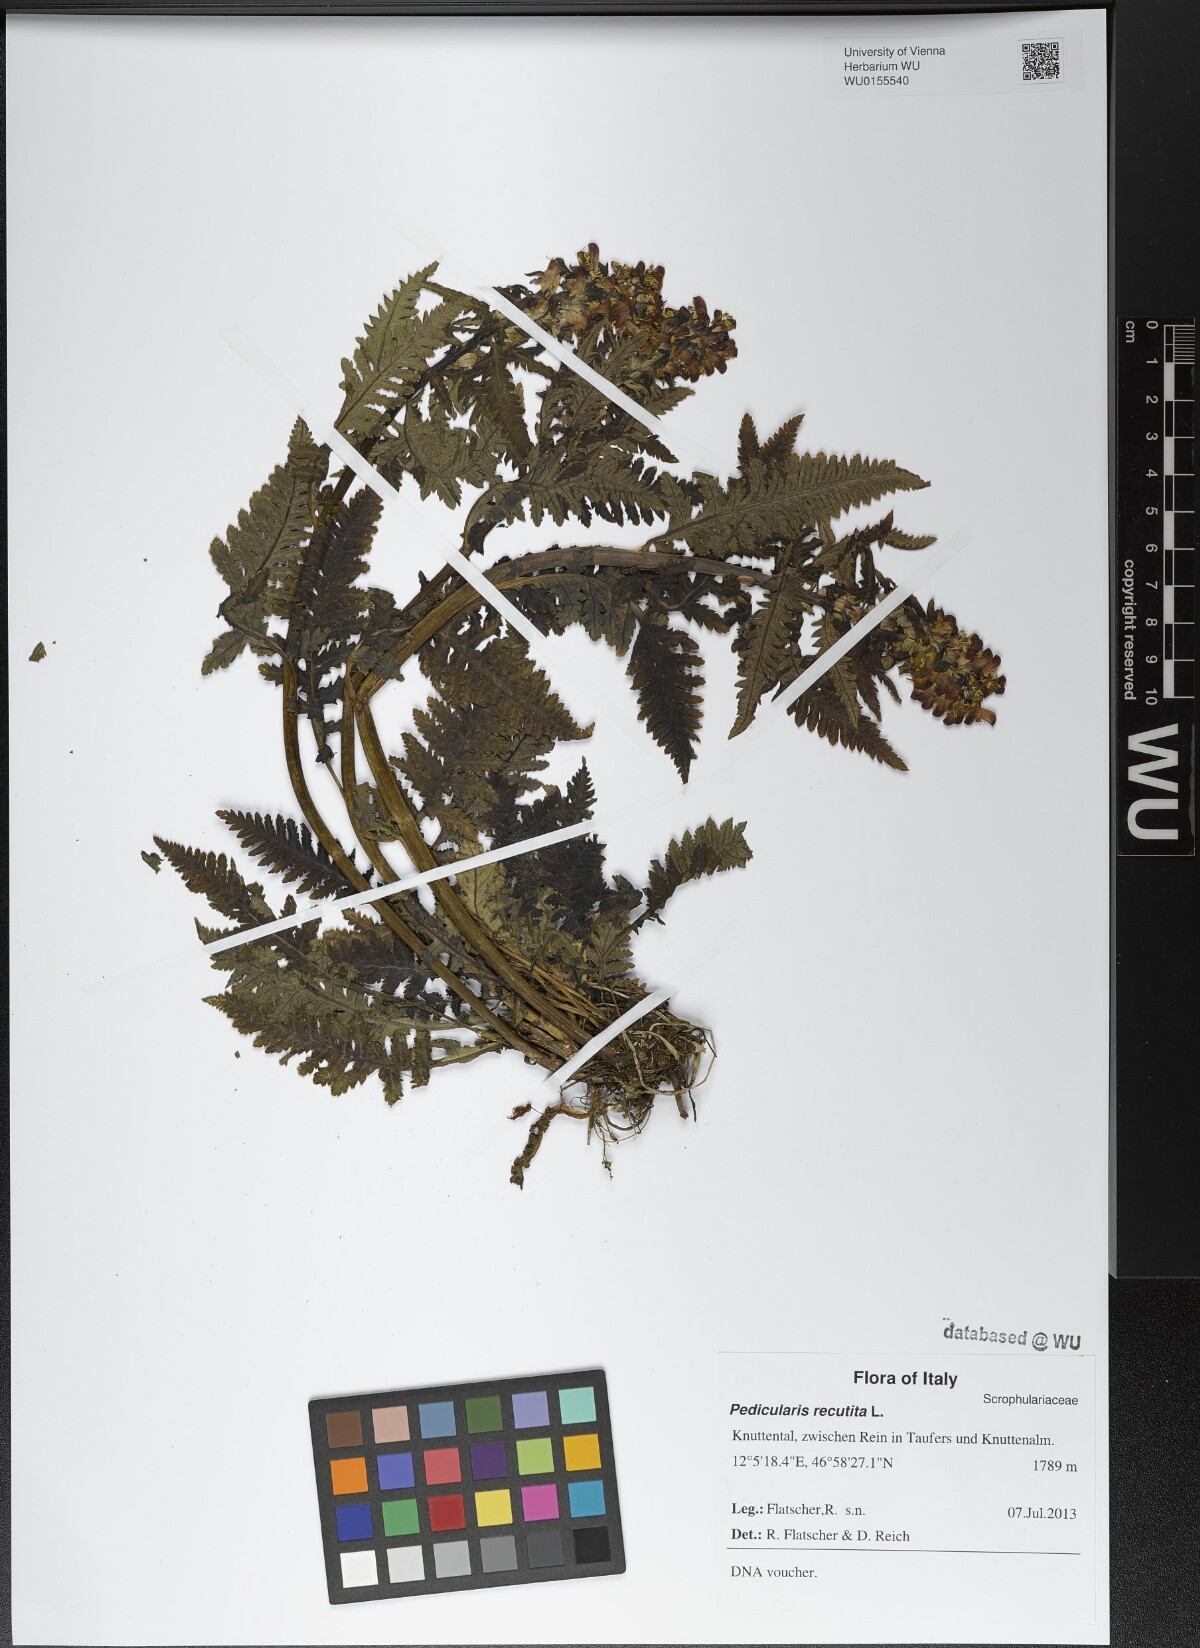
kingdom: Plantae
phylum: Tracheophyta
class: Magnoliopsida
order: Lamiales
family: Orobanchaceae
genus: Pedicularis
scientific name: Pedicularis recutita
